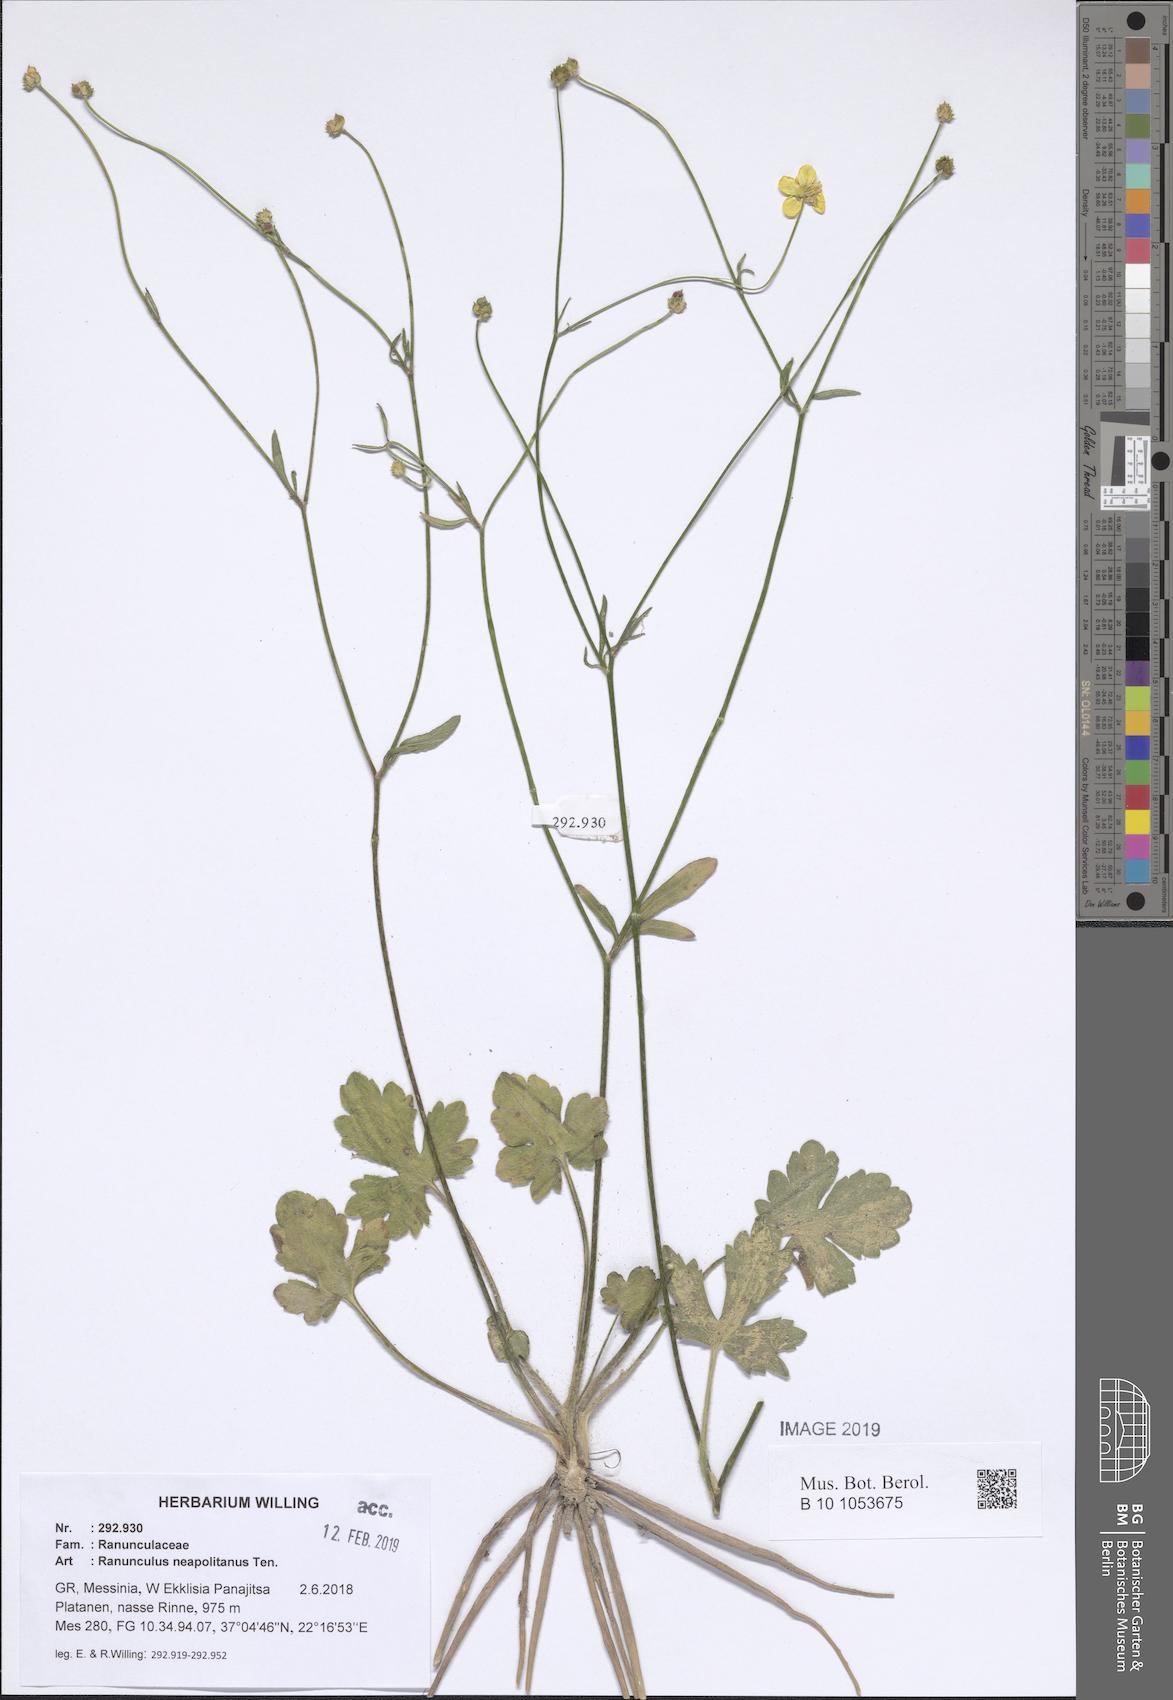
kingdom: Plantae
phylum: Tracheophyta
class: Magnoliopsida
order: Ranunculales
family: Ranunculaceae
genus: Ranunculus
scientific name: Ranunculus neapolitanus
